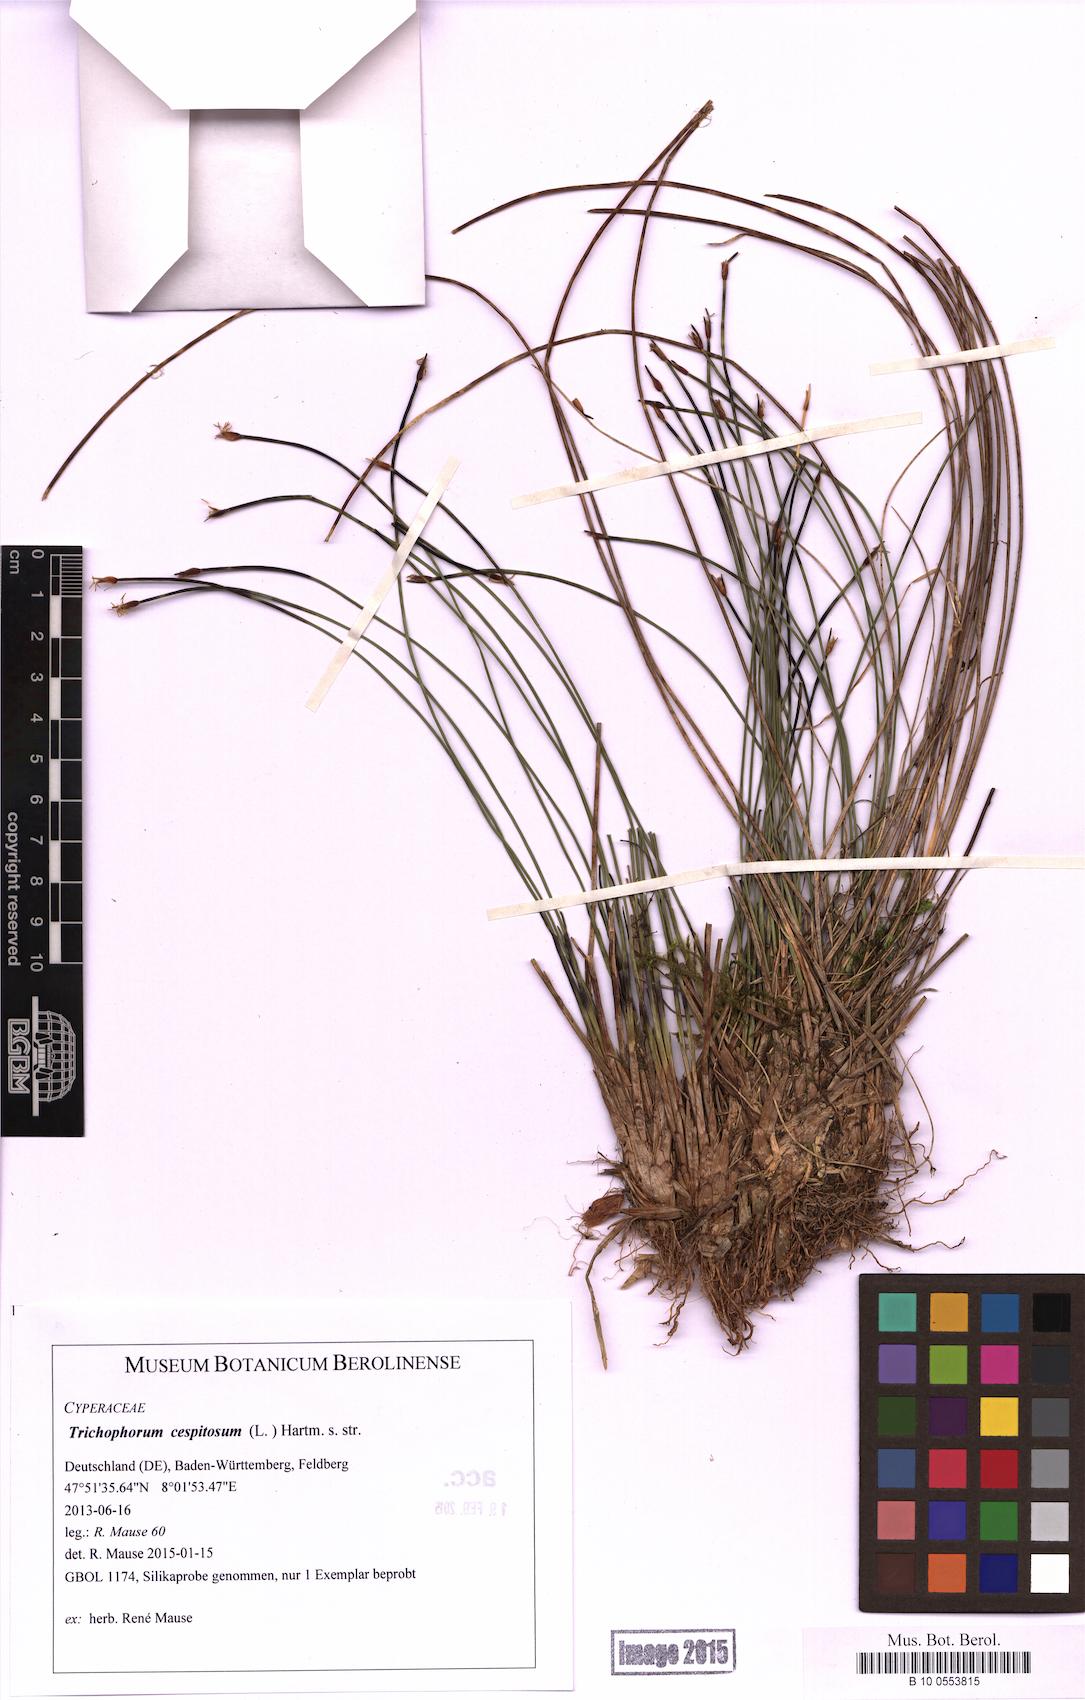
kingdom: Plantae
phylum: Tracheophyta
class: Liliopsida
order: Poales
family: Cyperaceae
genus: Trichophorum
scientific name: Trichophorum cespitosum
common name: Cespitose bulrush
